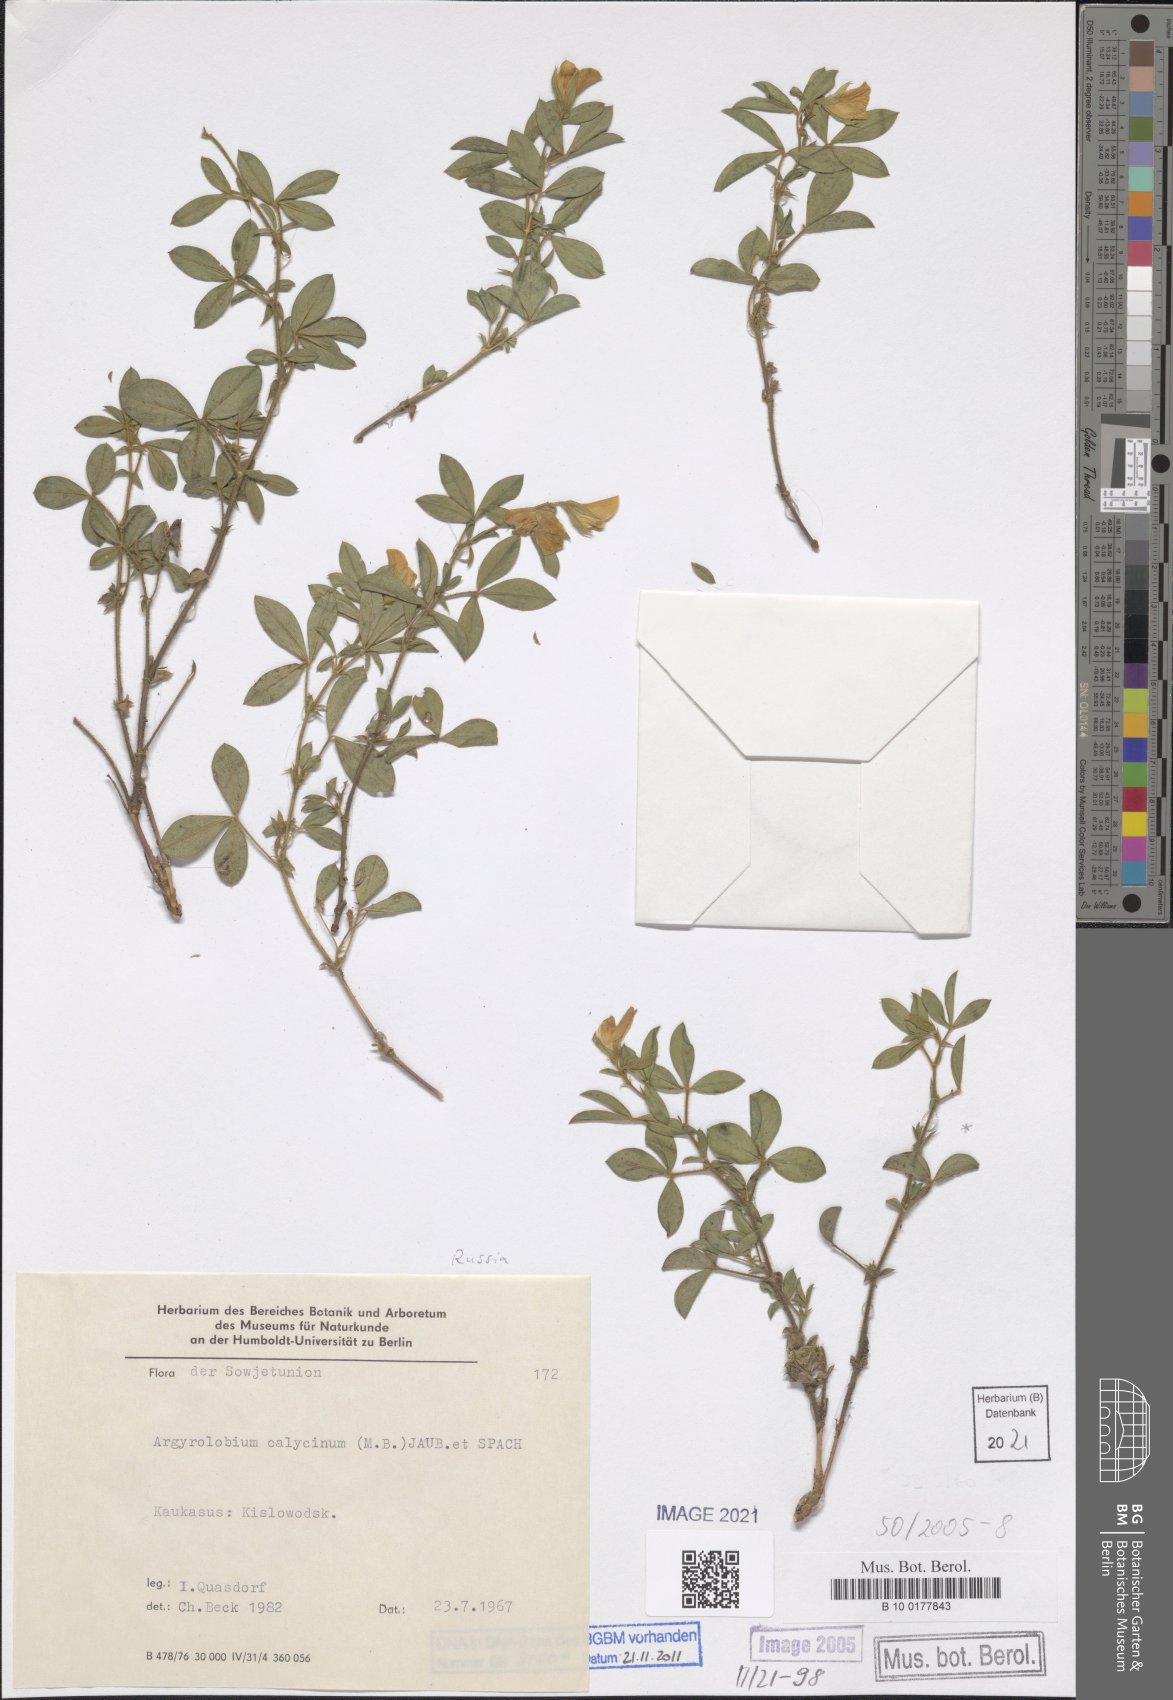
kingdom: Plantae
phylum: Tracheophyta
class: Magnoliopsida
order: Fabales
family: Fabaceae
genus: Argyrolobium
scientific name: Argyrolobium biebersteinii
